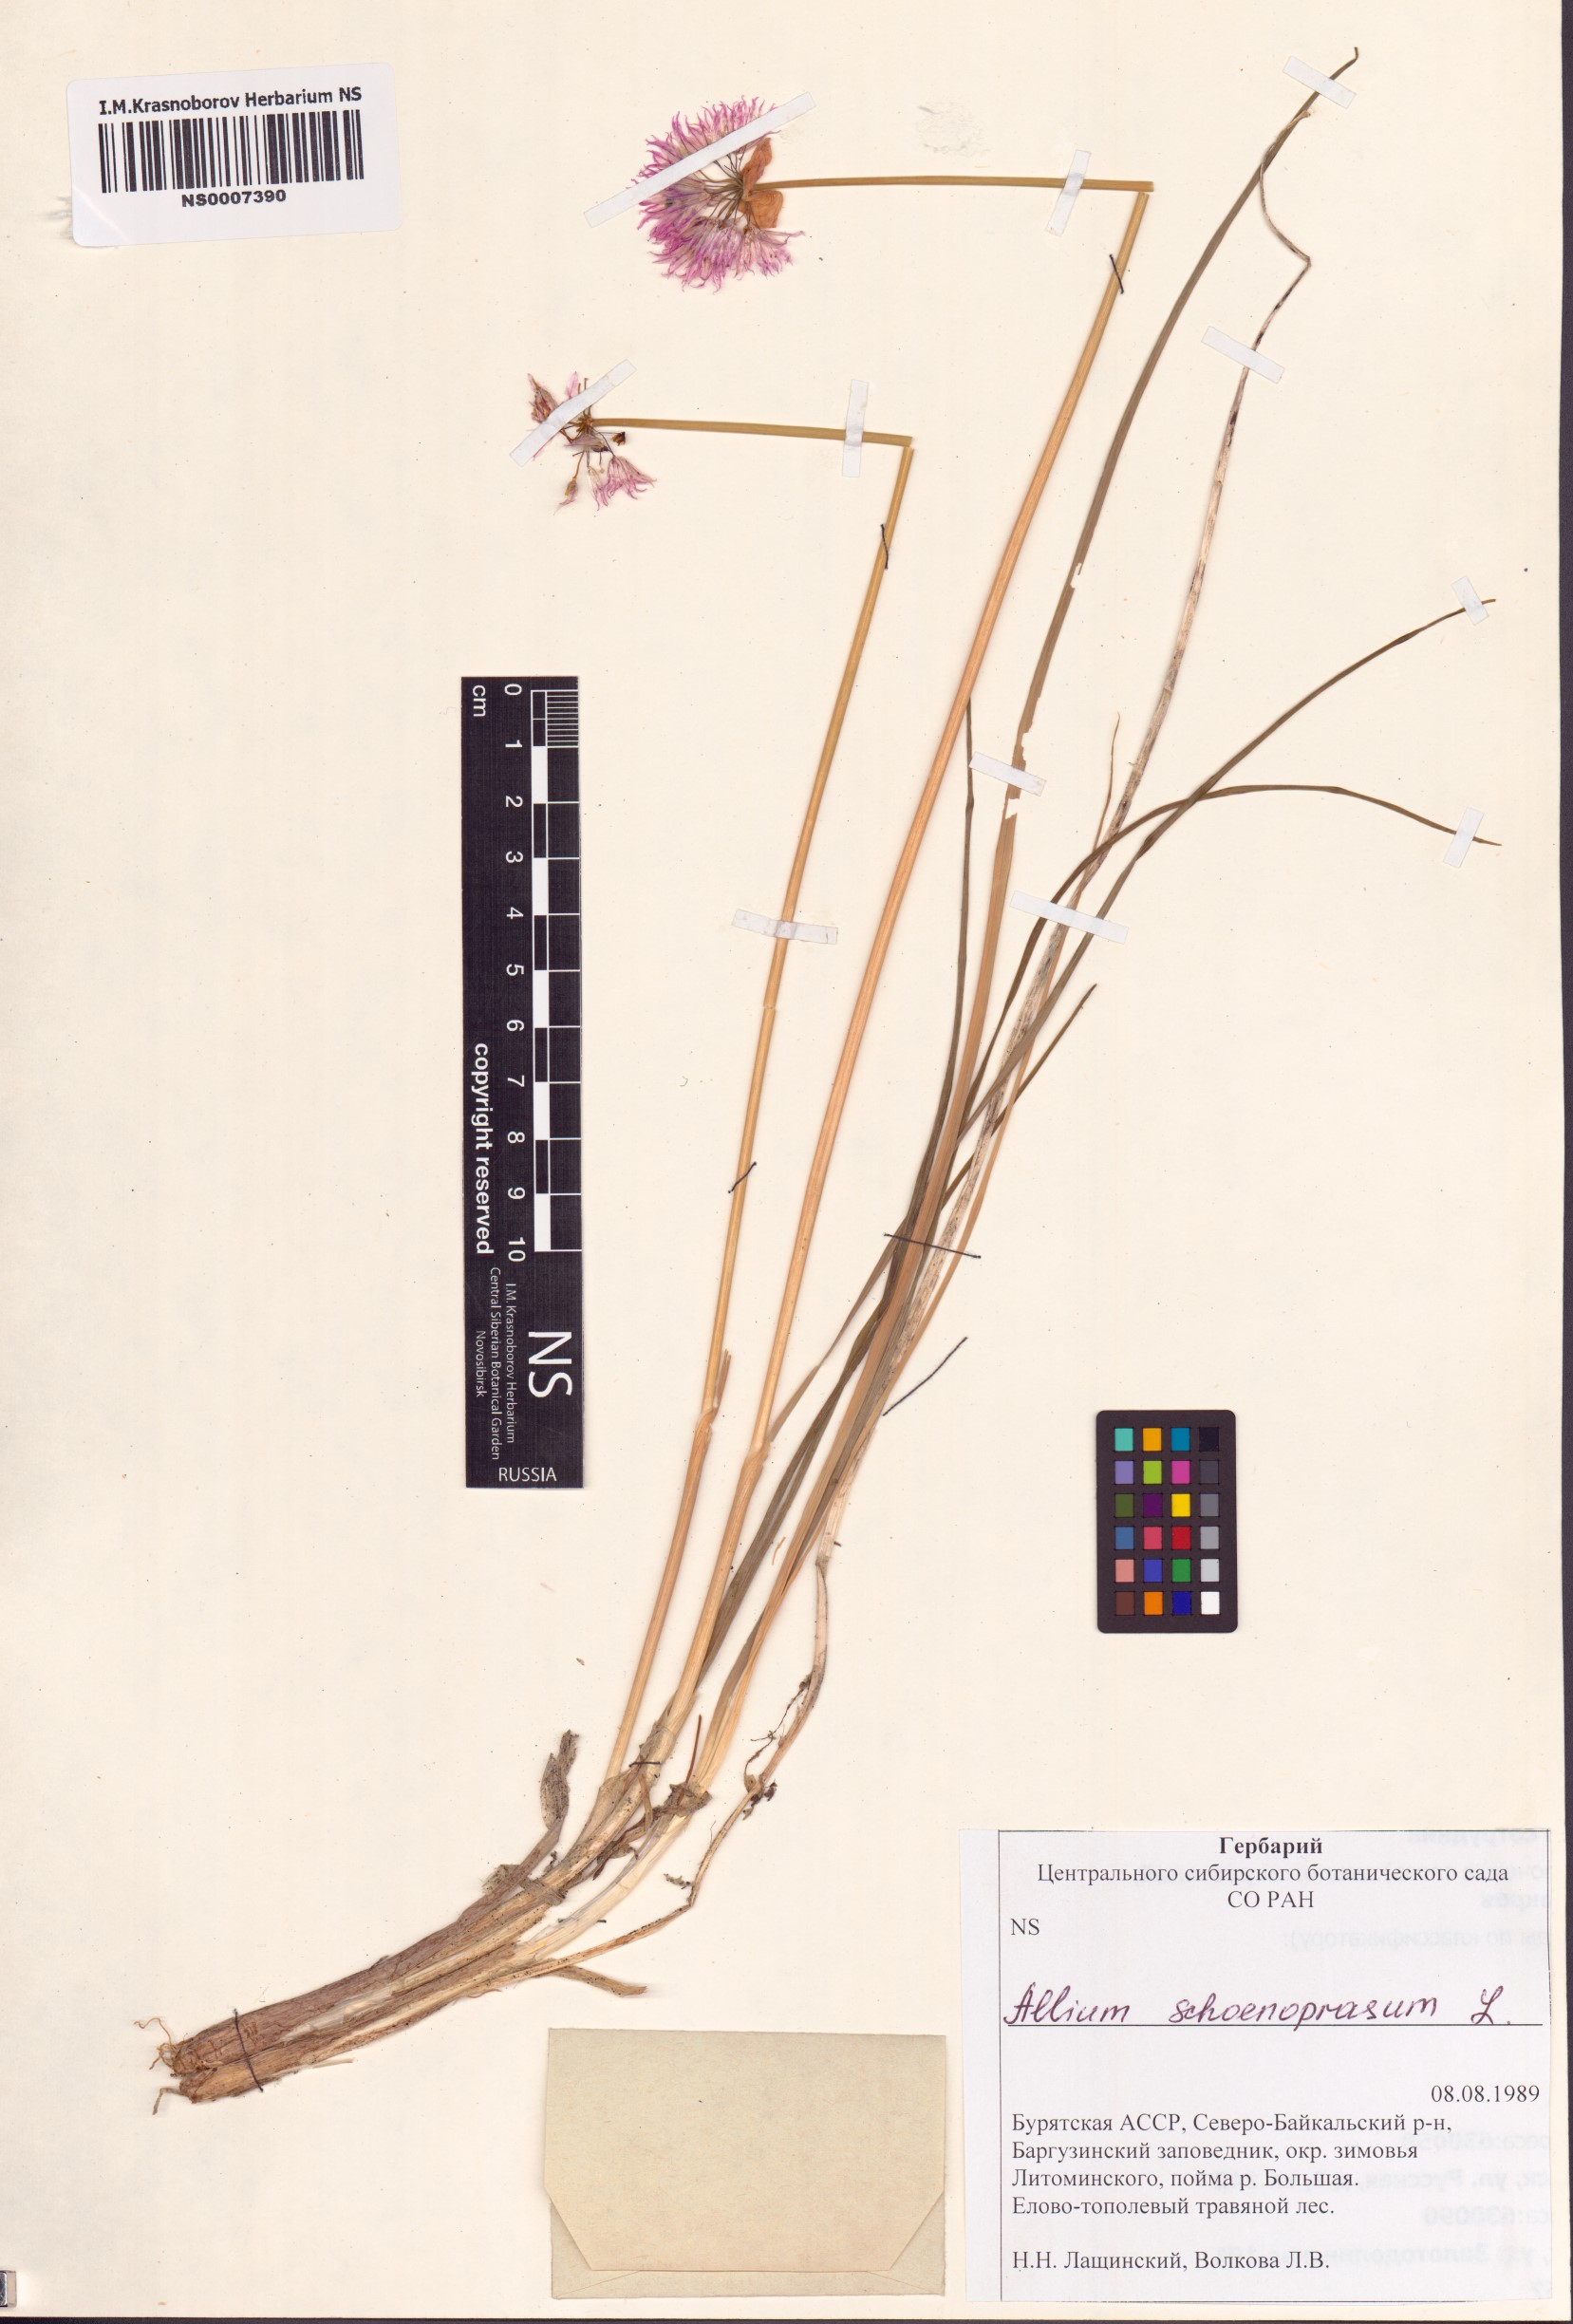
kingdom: Plantae
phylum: Tracheophyta
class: Liliopsida
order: Asparagales
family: Amaryllidaceae
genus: Allium
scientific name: Allium schoenoprasum
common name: Chives
